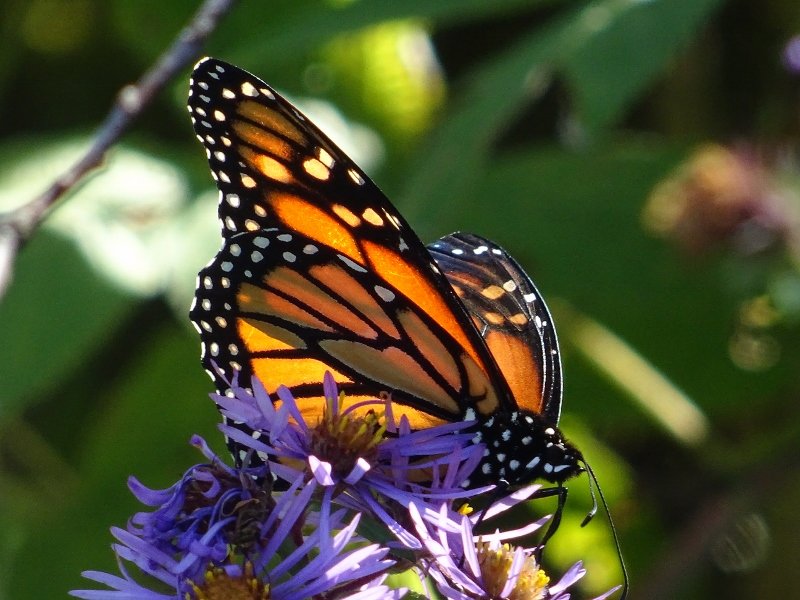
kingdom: Animalia
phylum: Arthropoda
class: Insecta
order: Lepidoptera
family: Nymphalidae
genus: Danaus
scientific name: Danaus plexippus
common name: Monarch
